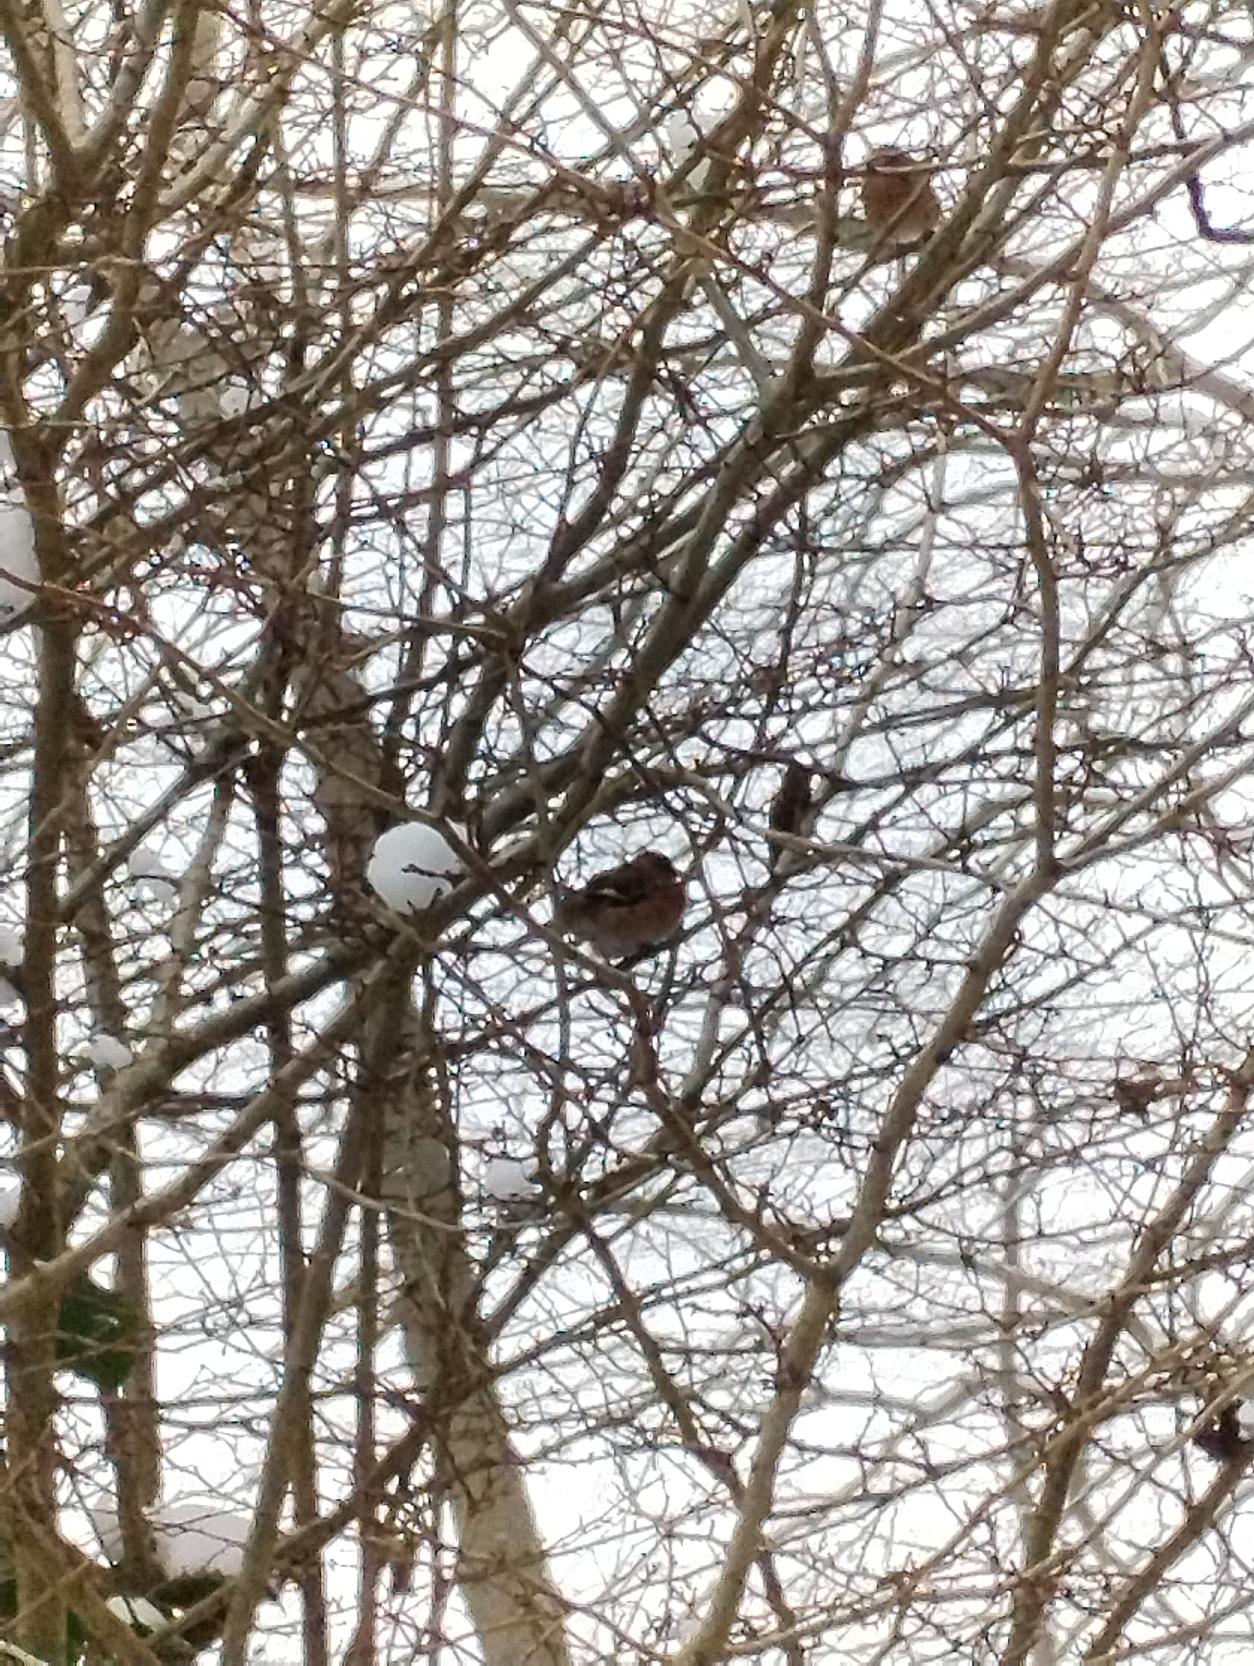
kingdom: Animalia
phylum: Chordata
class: Aves
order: Passeriformes
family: Fringillidae
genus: Fringilla
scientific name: Fringilla coelebs
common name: Bogfinke
